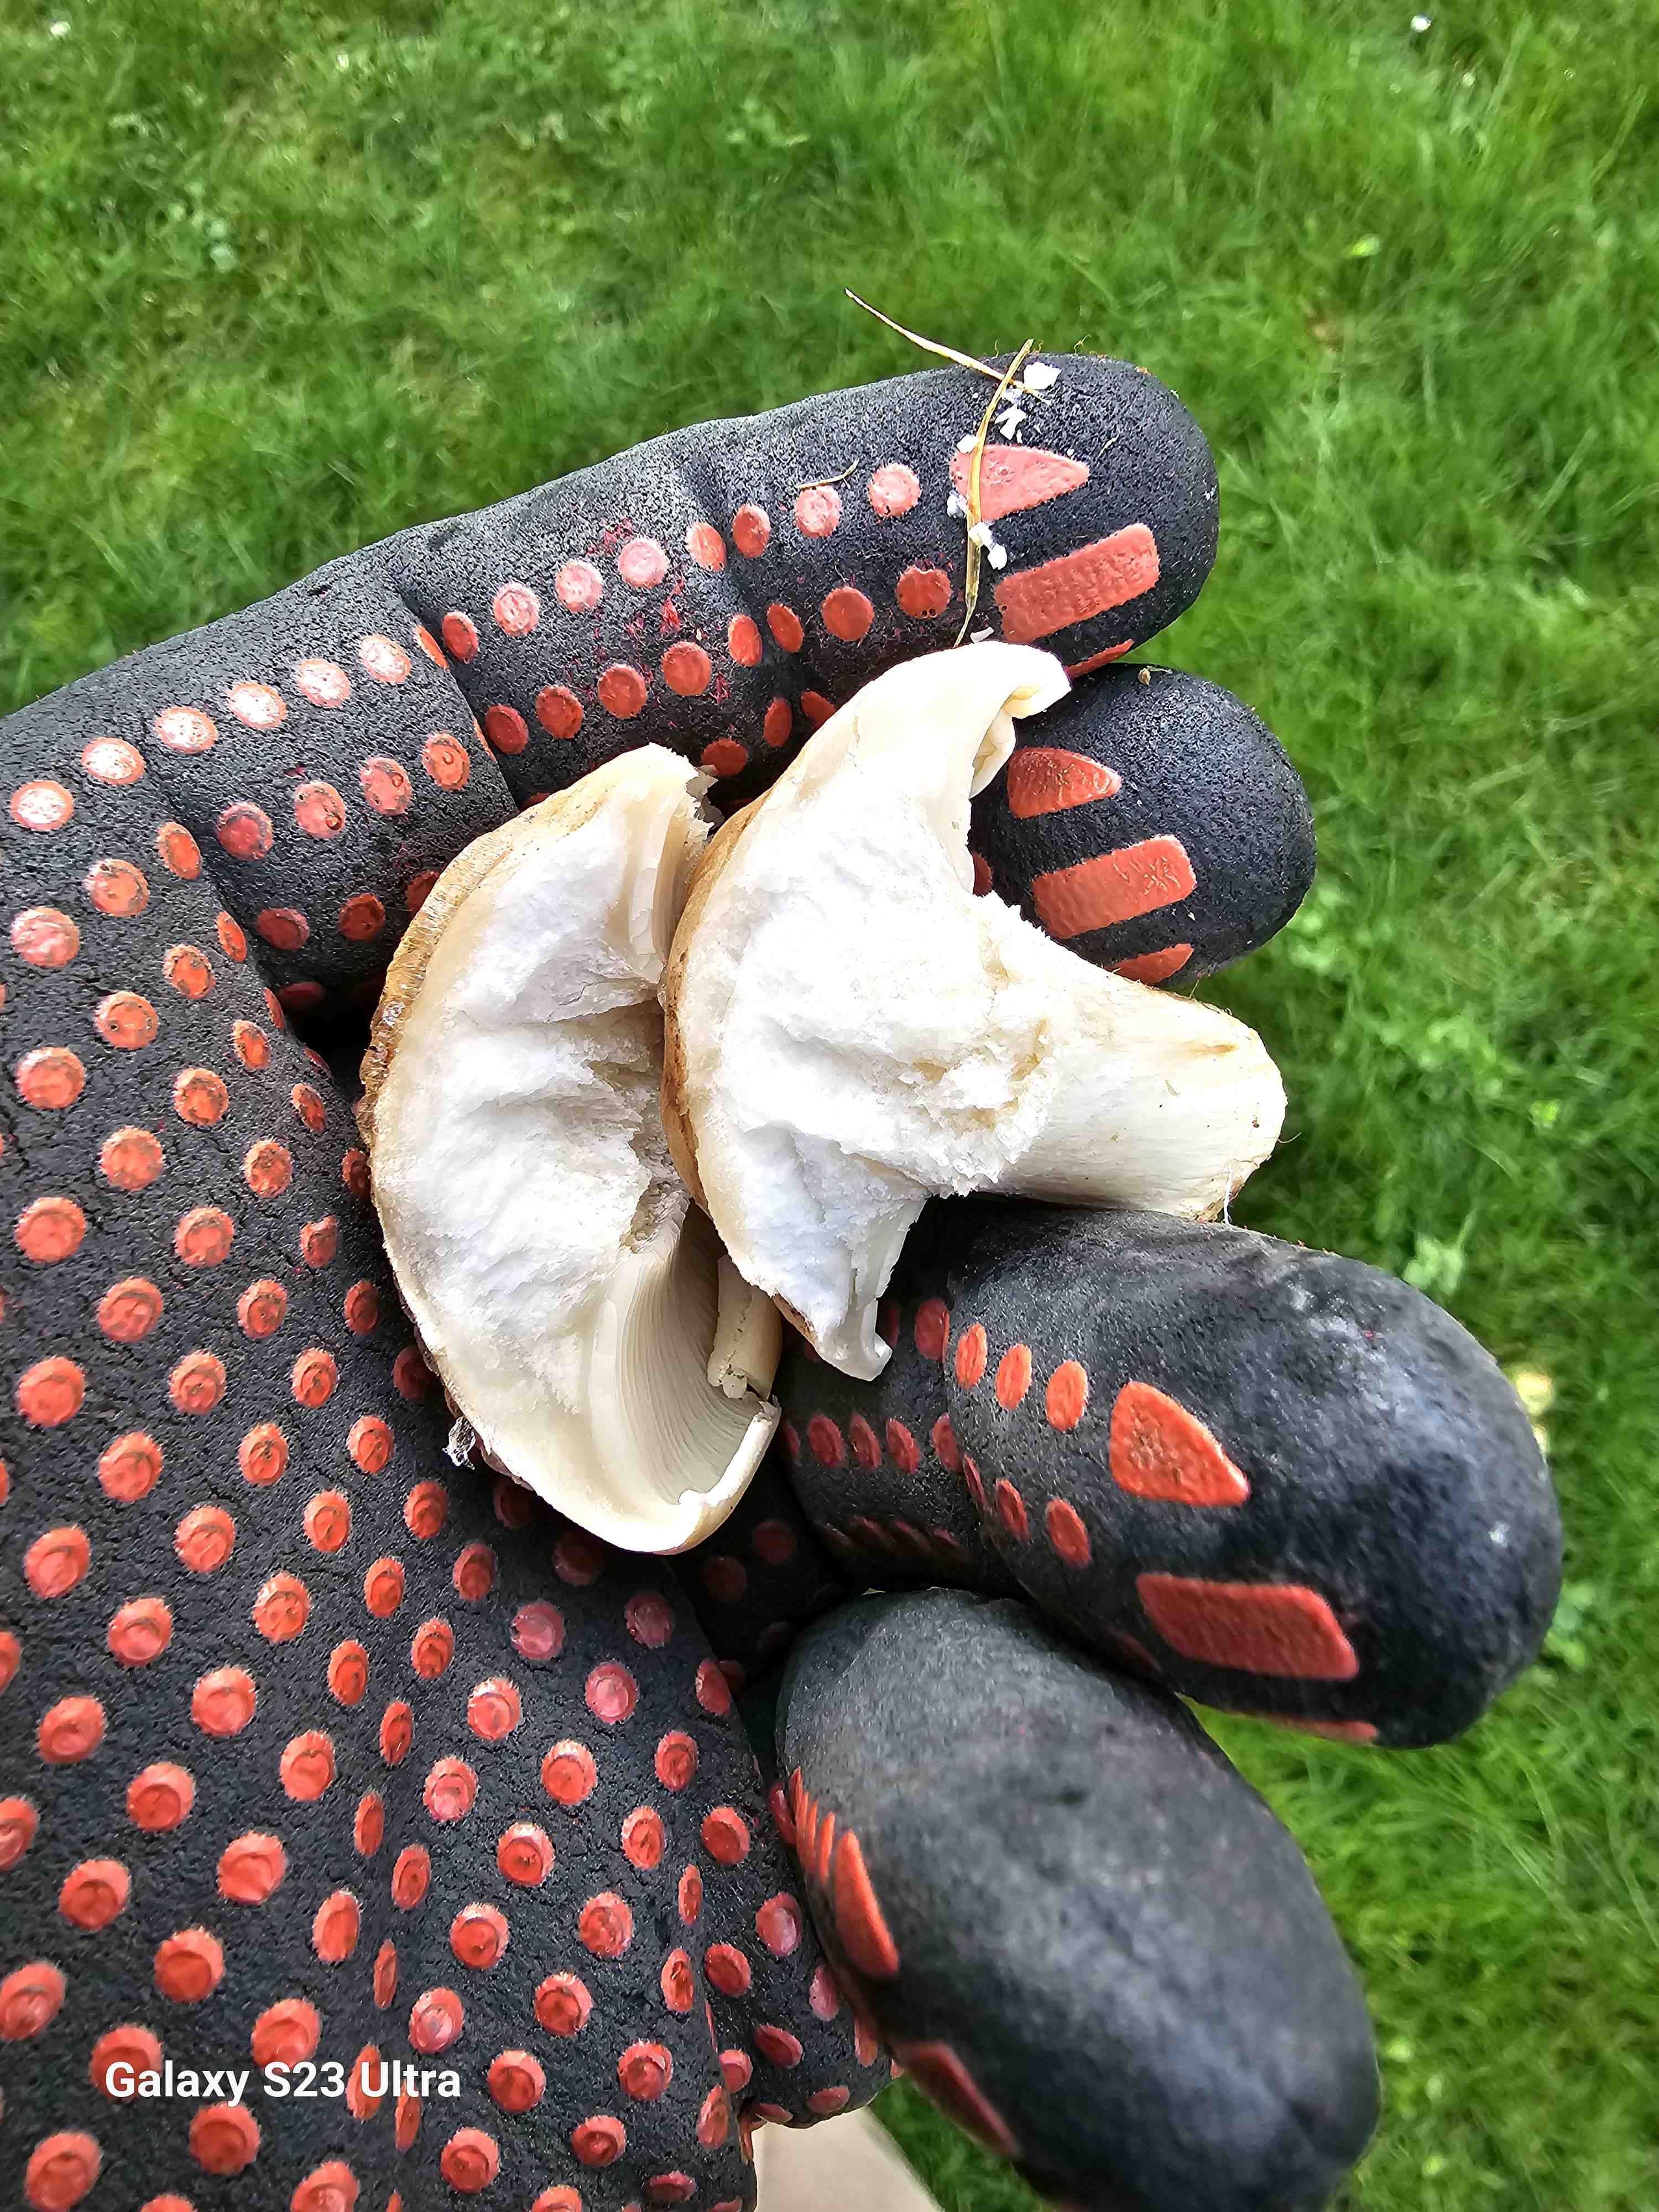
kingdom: Fungi
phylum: Basidiomycota
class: Agaricomycetes
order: Agaricales
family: Lyophyllaceae
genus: Calocybe
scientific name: Calocybe gambosa
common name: vårmusseron
